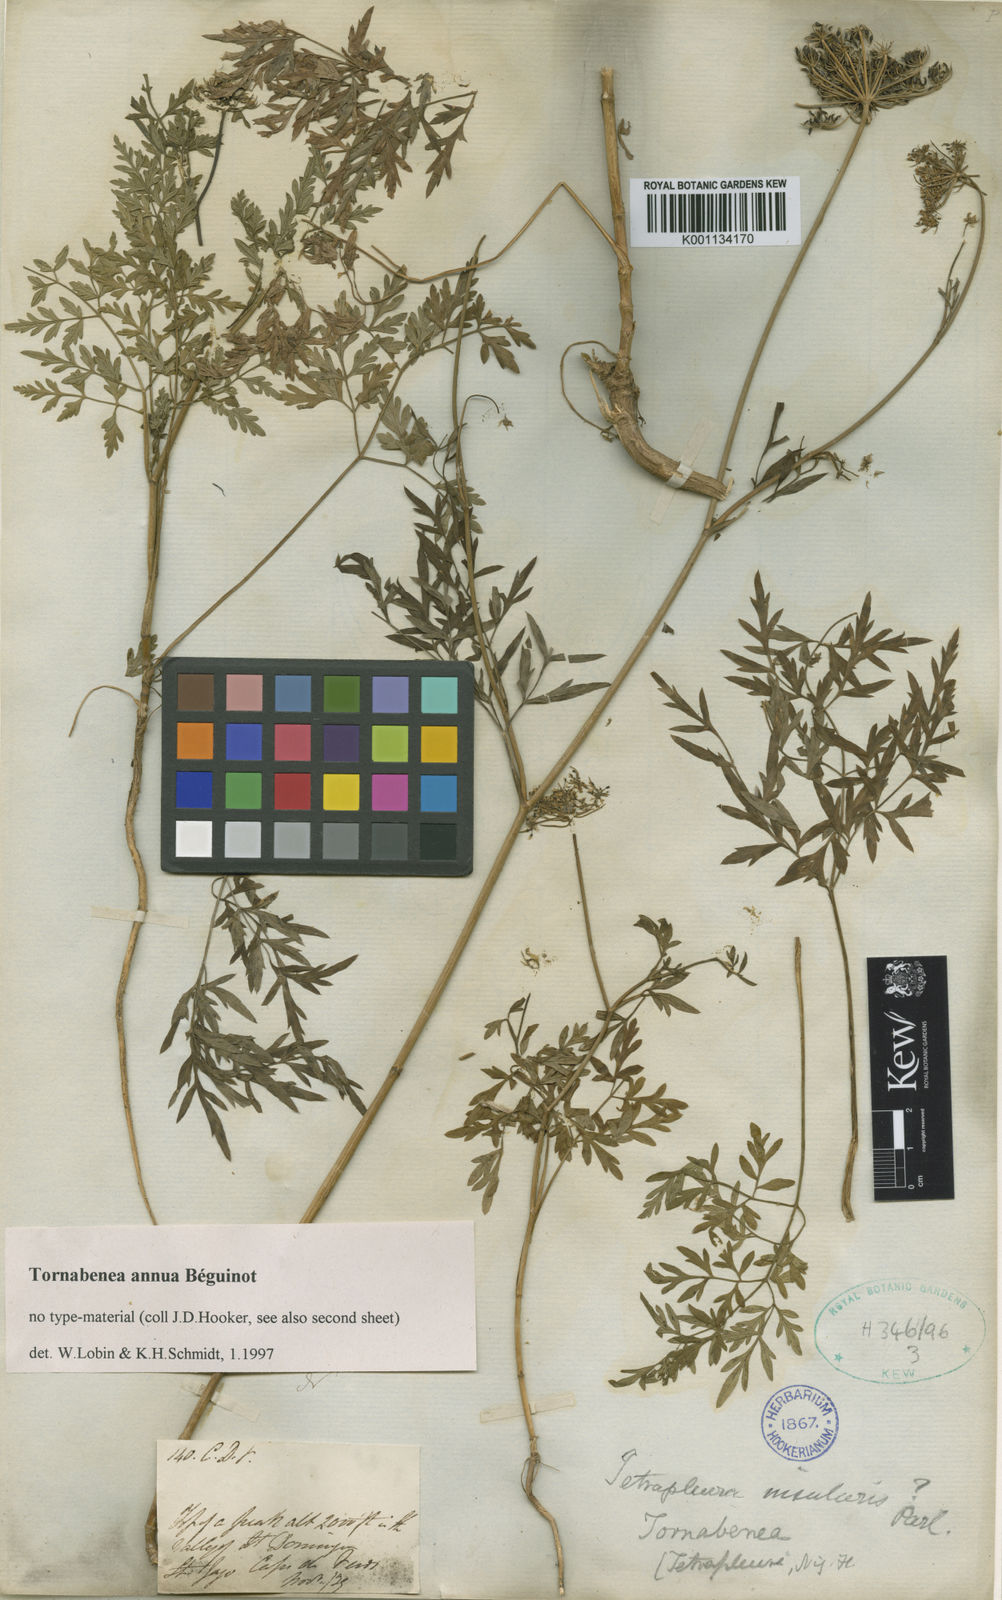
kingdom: Plantae
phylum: Tracheophyta
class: Magnoliopsida
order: Apiales
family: Apiaceae
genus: Daucus
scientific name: Daucus
